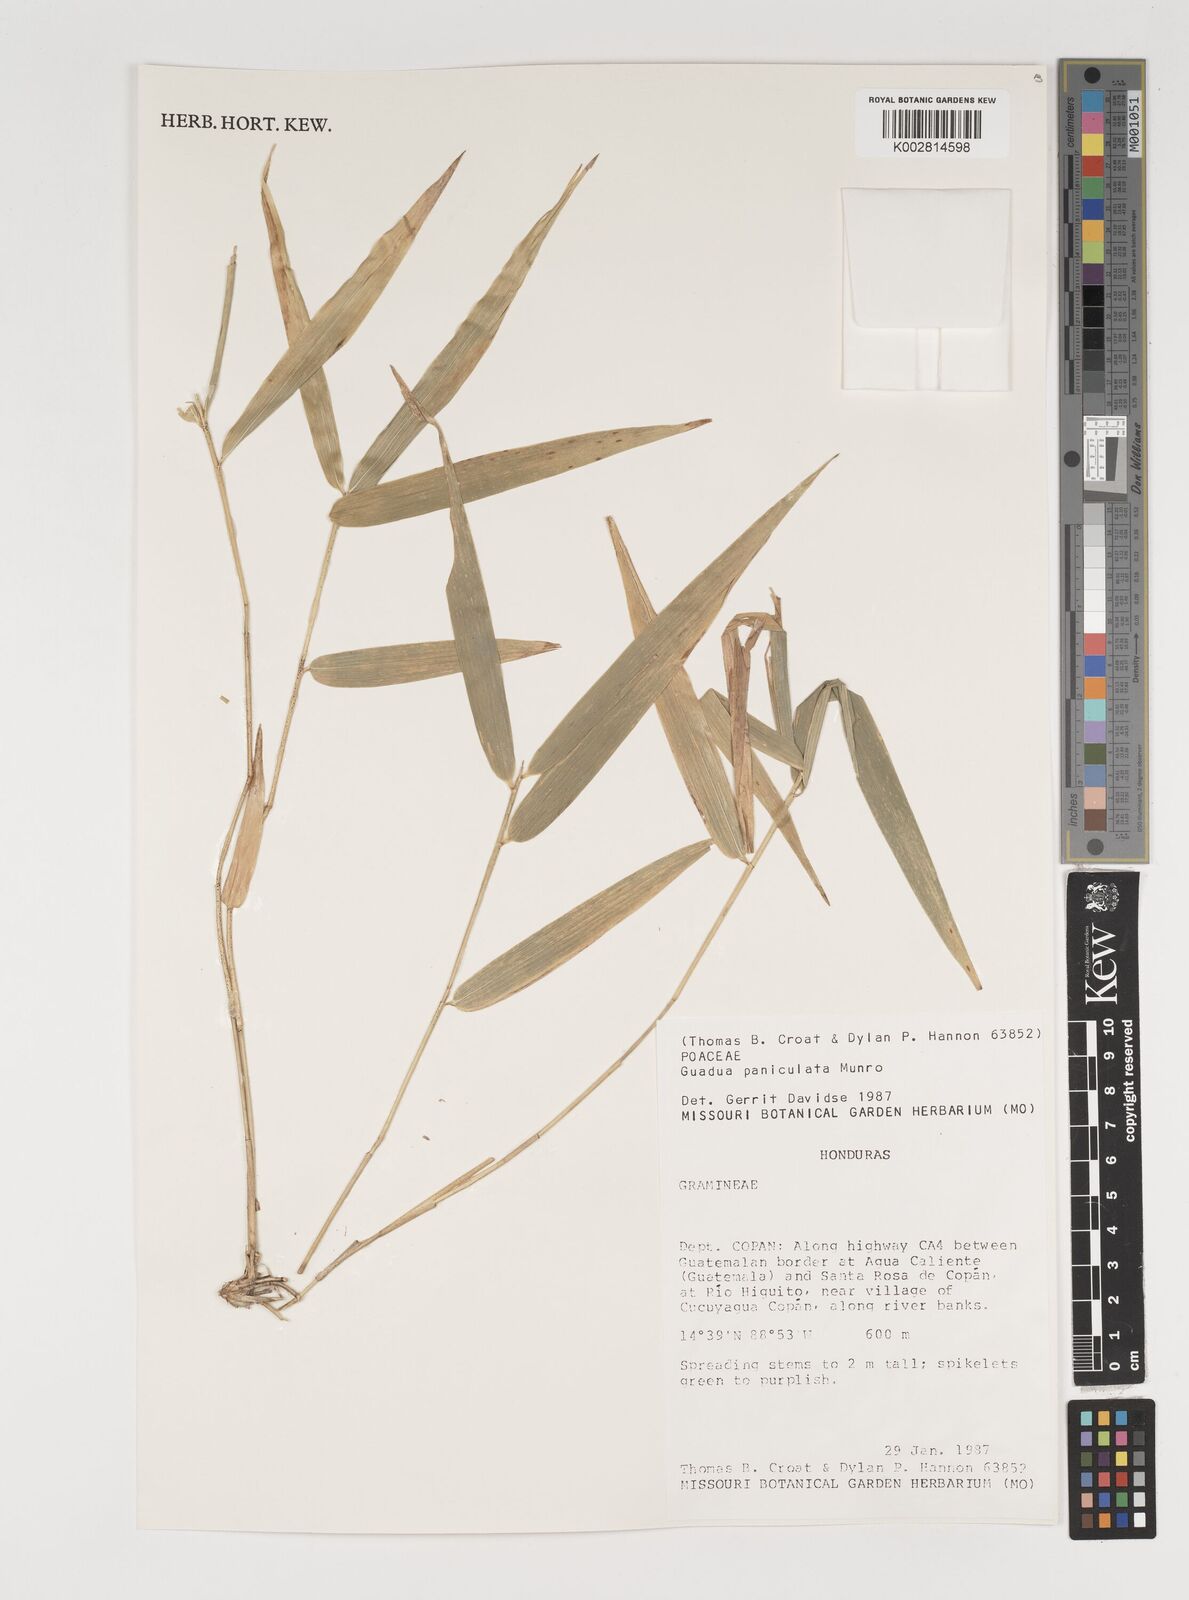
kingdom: Plantae
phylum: Tracheophyta
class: Liliopsida
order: Poales
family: Poaceae
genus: Guadua
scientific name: Guadua paniculata
